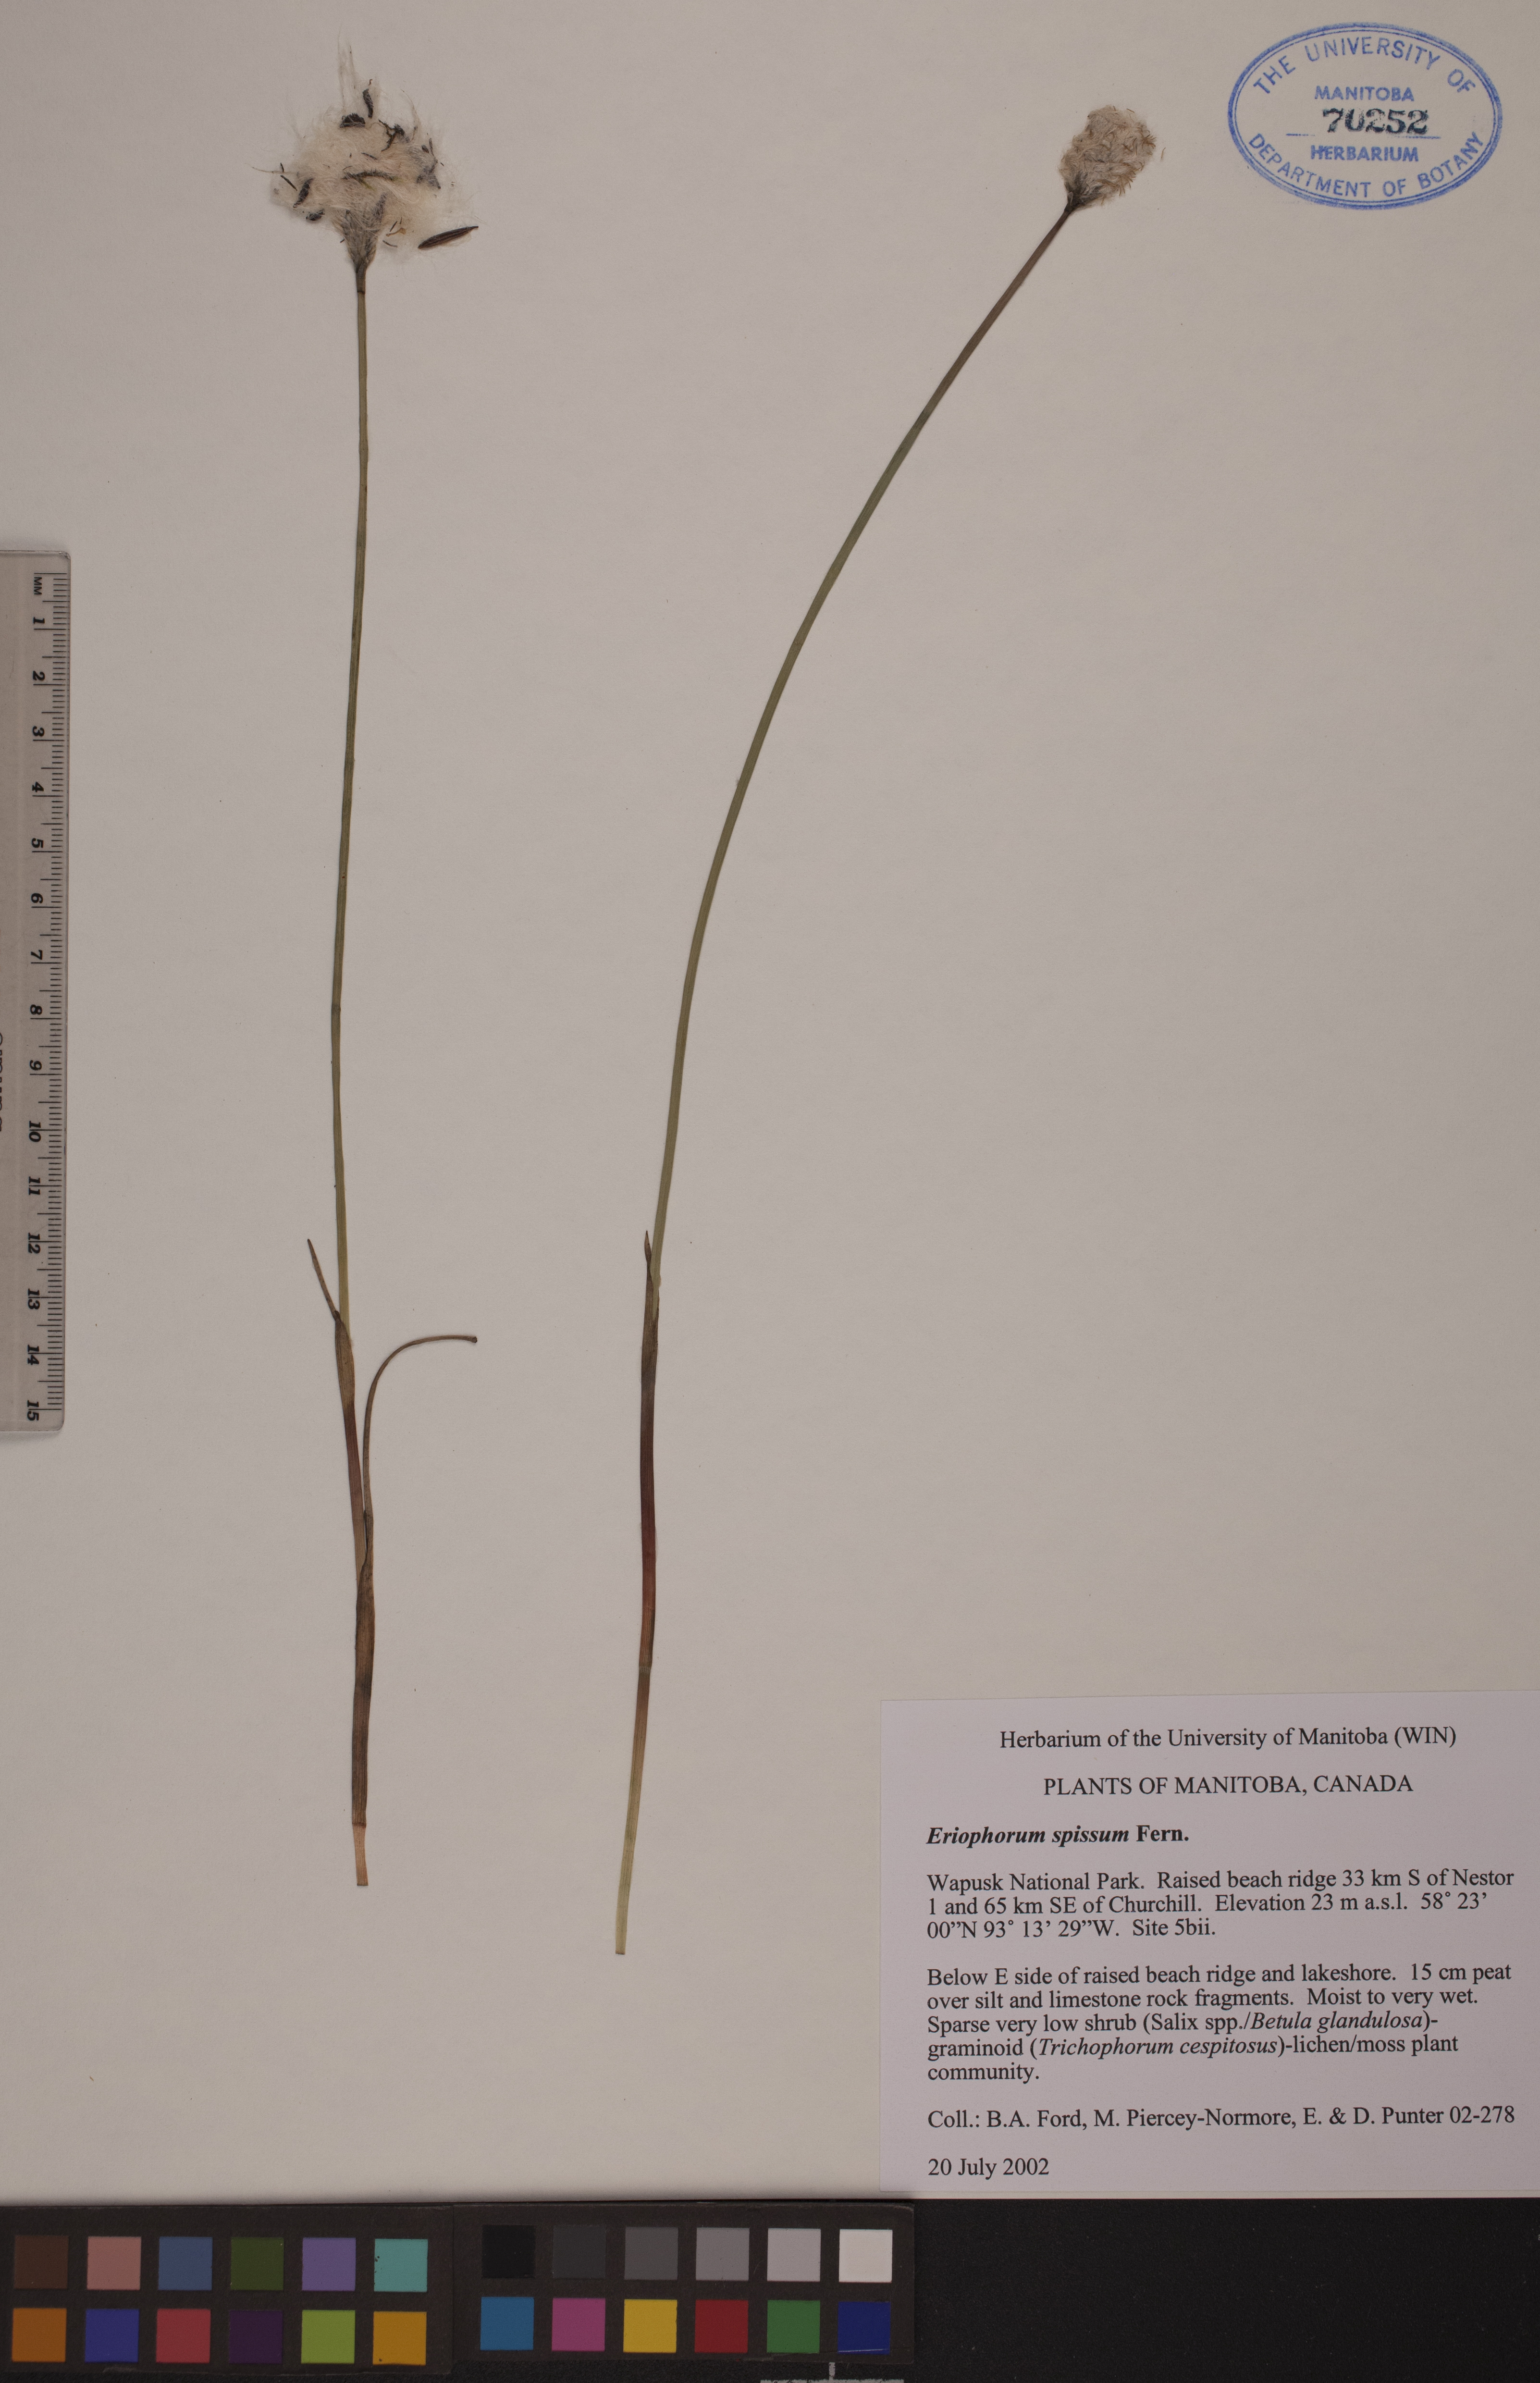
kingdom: Plantae
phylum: Tracheophyta
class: Liliopsida
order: Poales
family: Cyperaceae
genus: Eriophorum
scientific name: Eriophorum vaginatum
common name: Hare's-tail cottongrass
